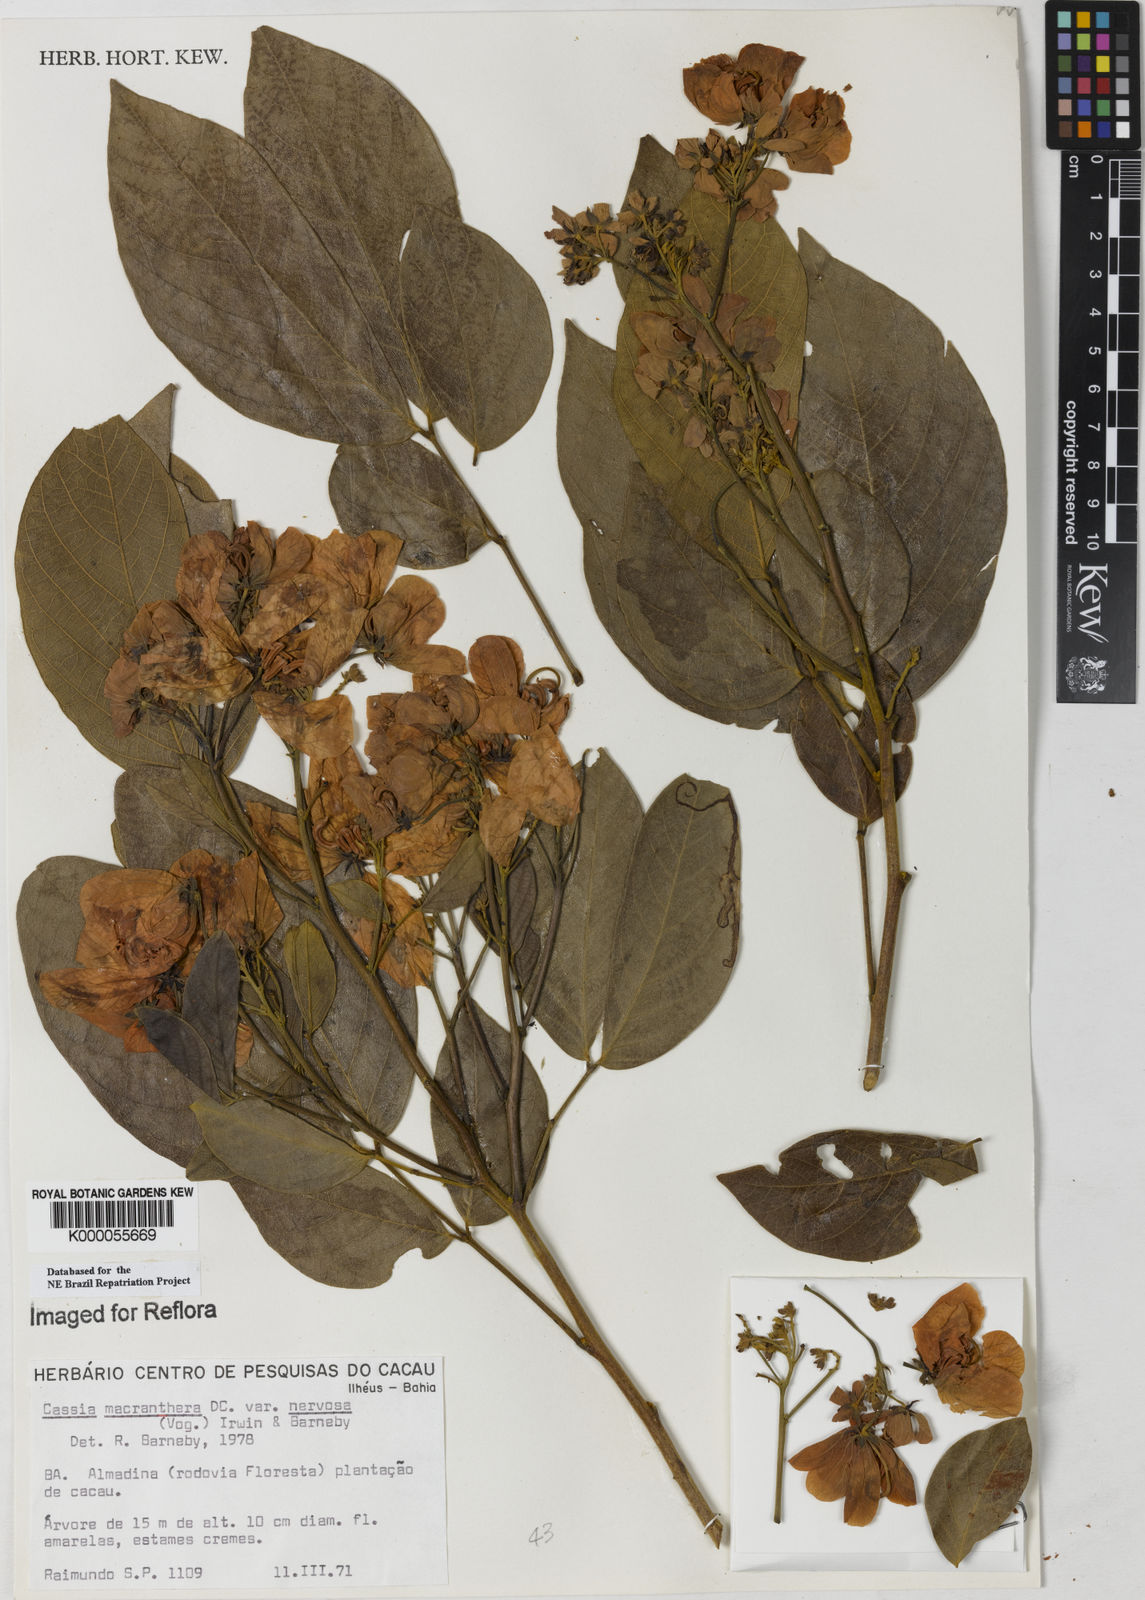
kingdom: Plantae
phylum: Tracheophyta
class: Magnoliopsida
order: Fabales
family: Fabaceae
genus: Senna
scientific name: Senna macranthera
